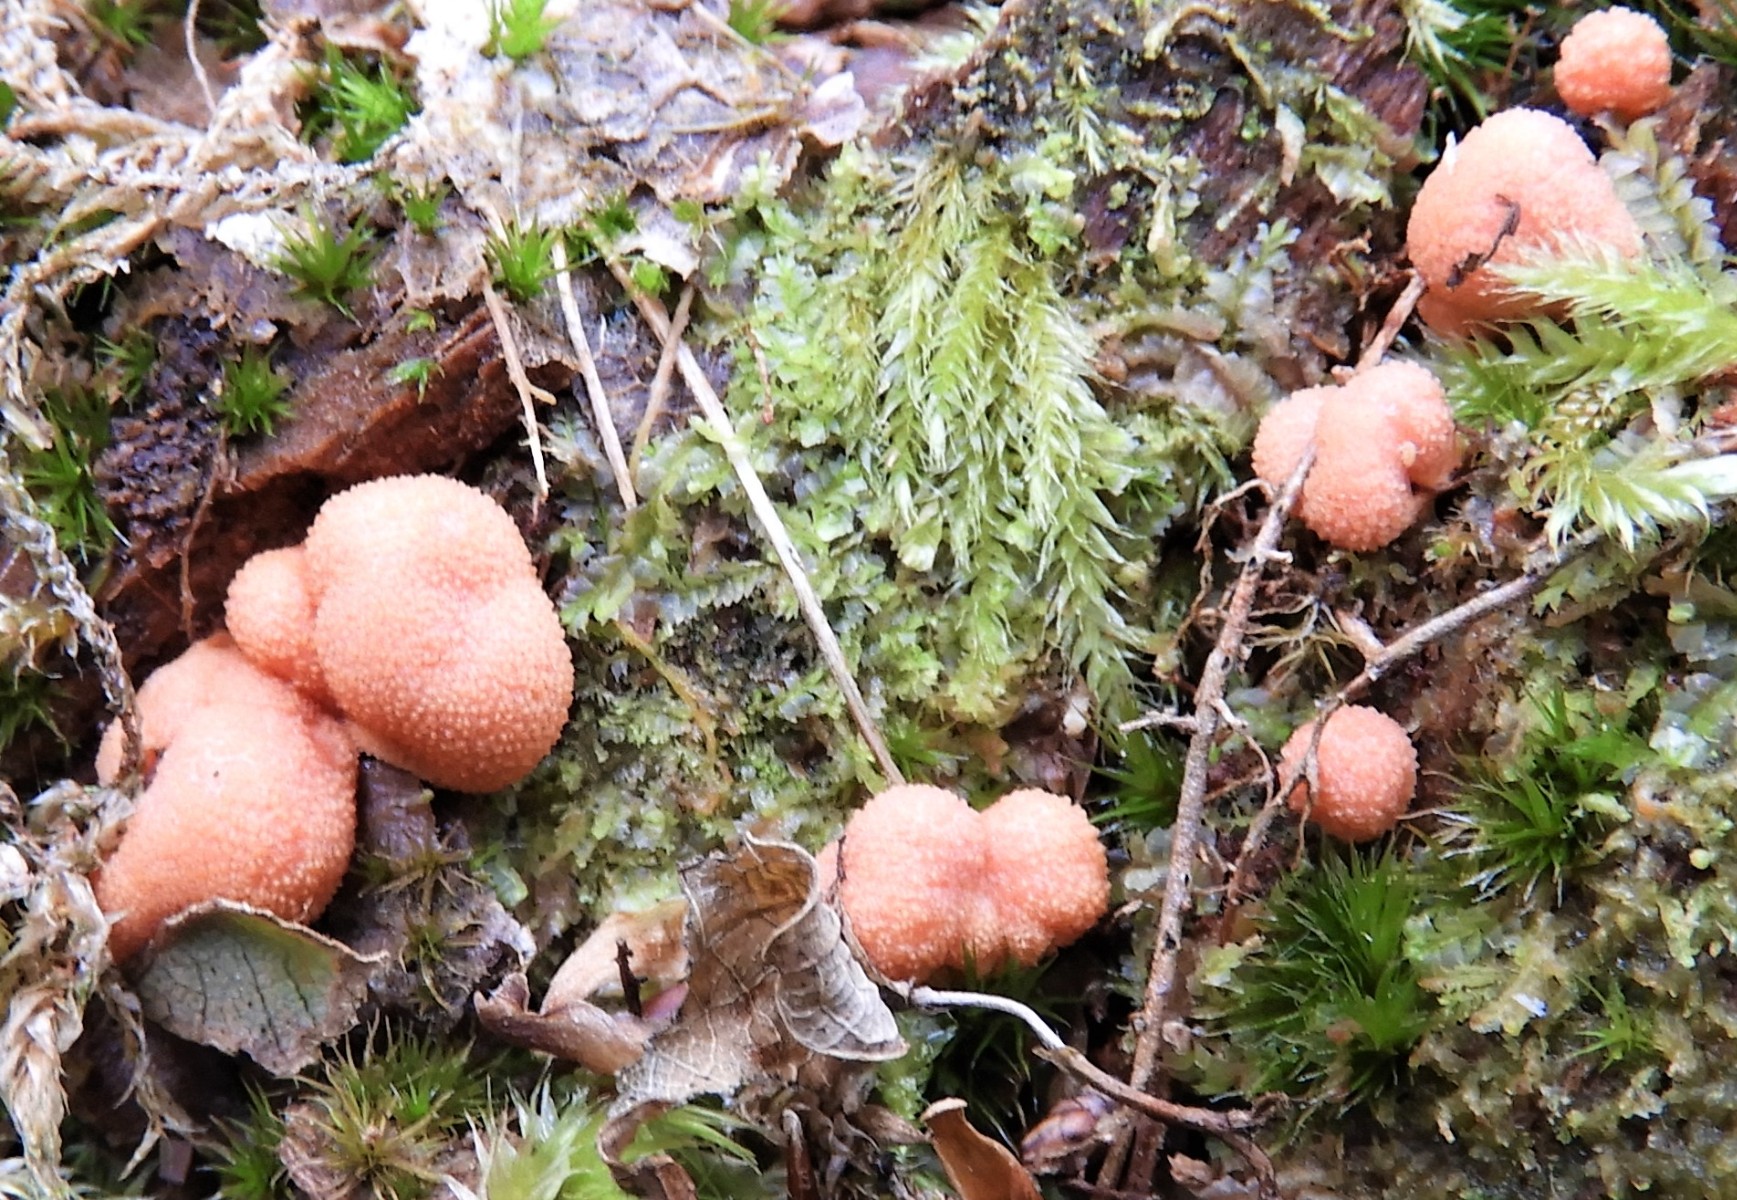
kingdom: Protozoa
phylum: Mycetozoa
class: Myxomycetes
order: Cribrariales
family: Tubiferaceae
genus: Lycogala
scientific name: Lycogala epidendrum
